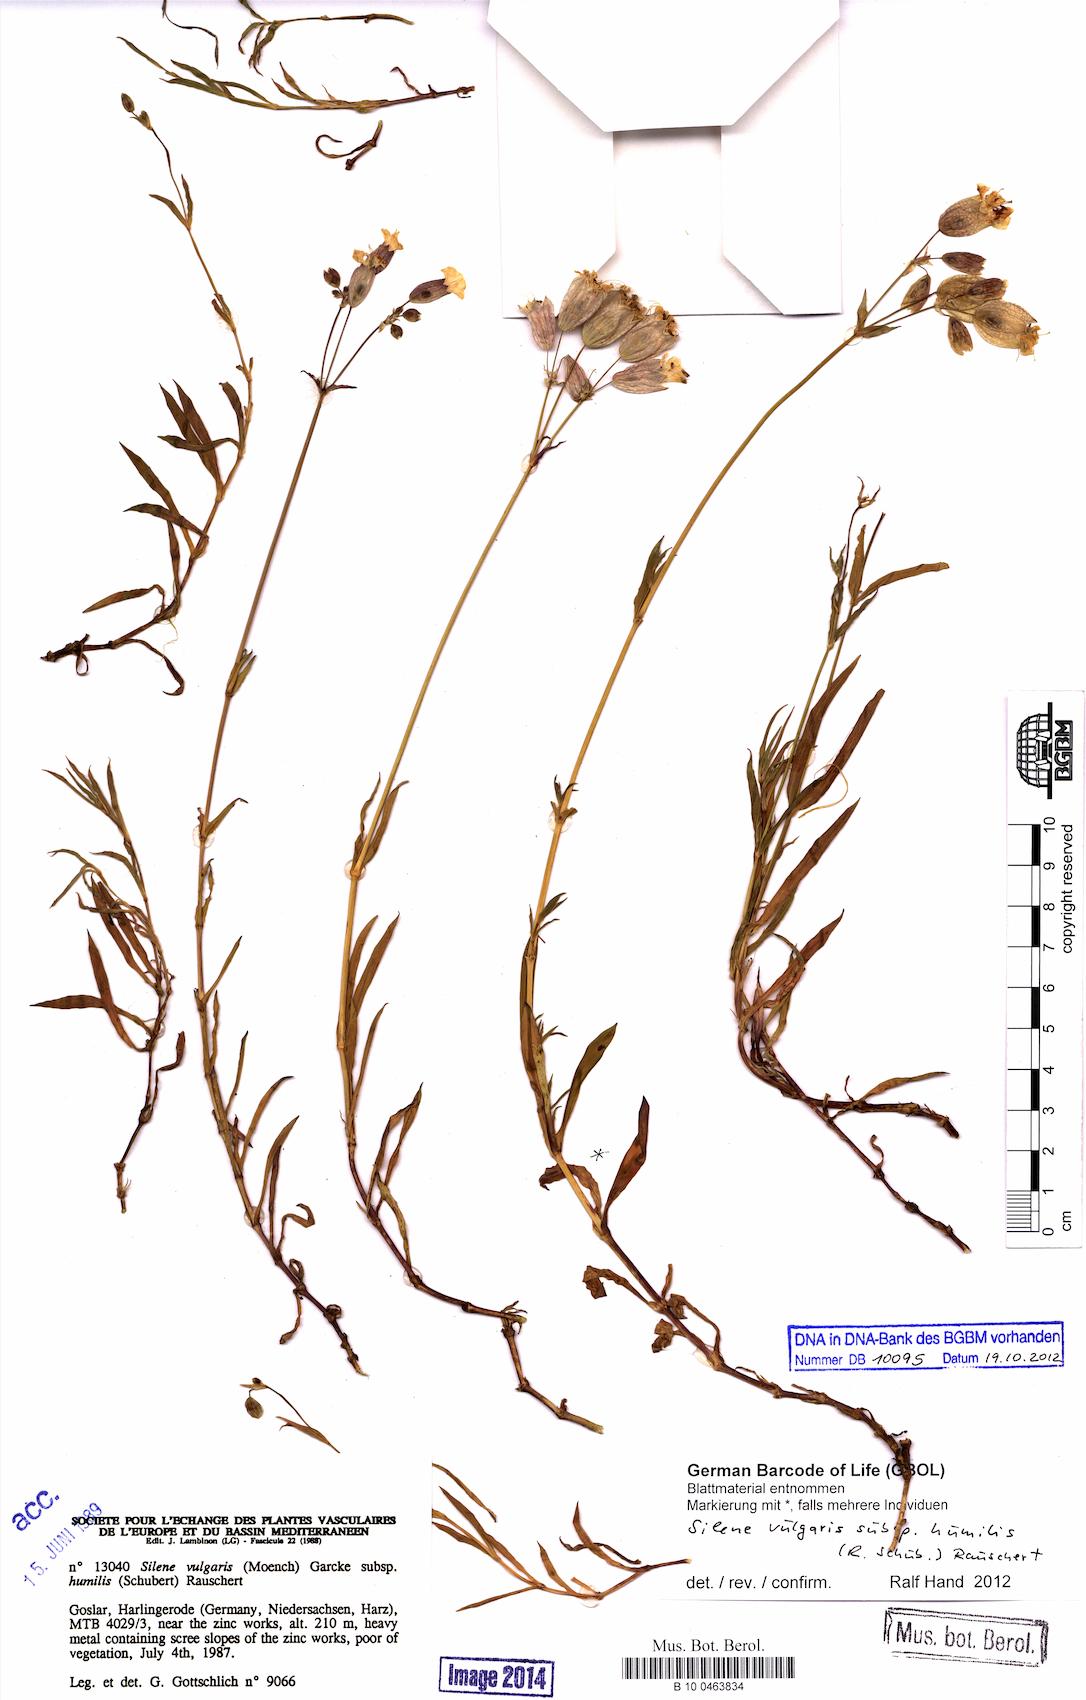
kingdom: Plantae
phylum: Tracheophyta
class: Magnoliopsida
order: Caryophyllales
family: Caryophyllaceae
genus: Silene
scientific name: Silene vulgaris
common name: Bladder campion
